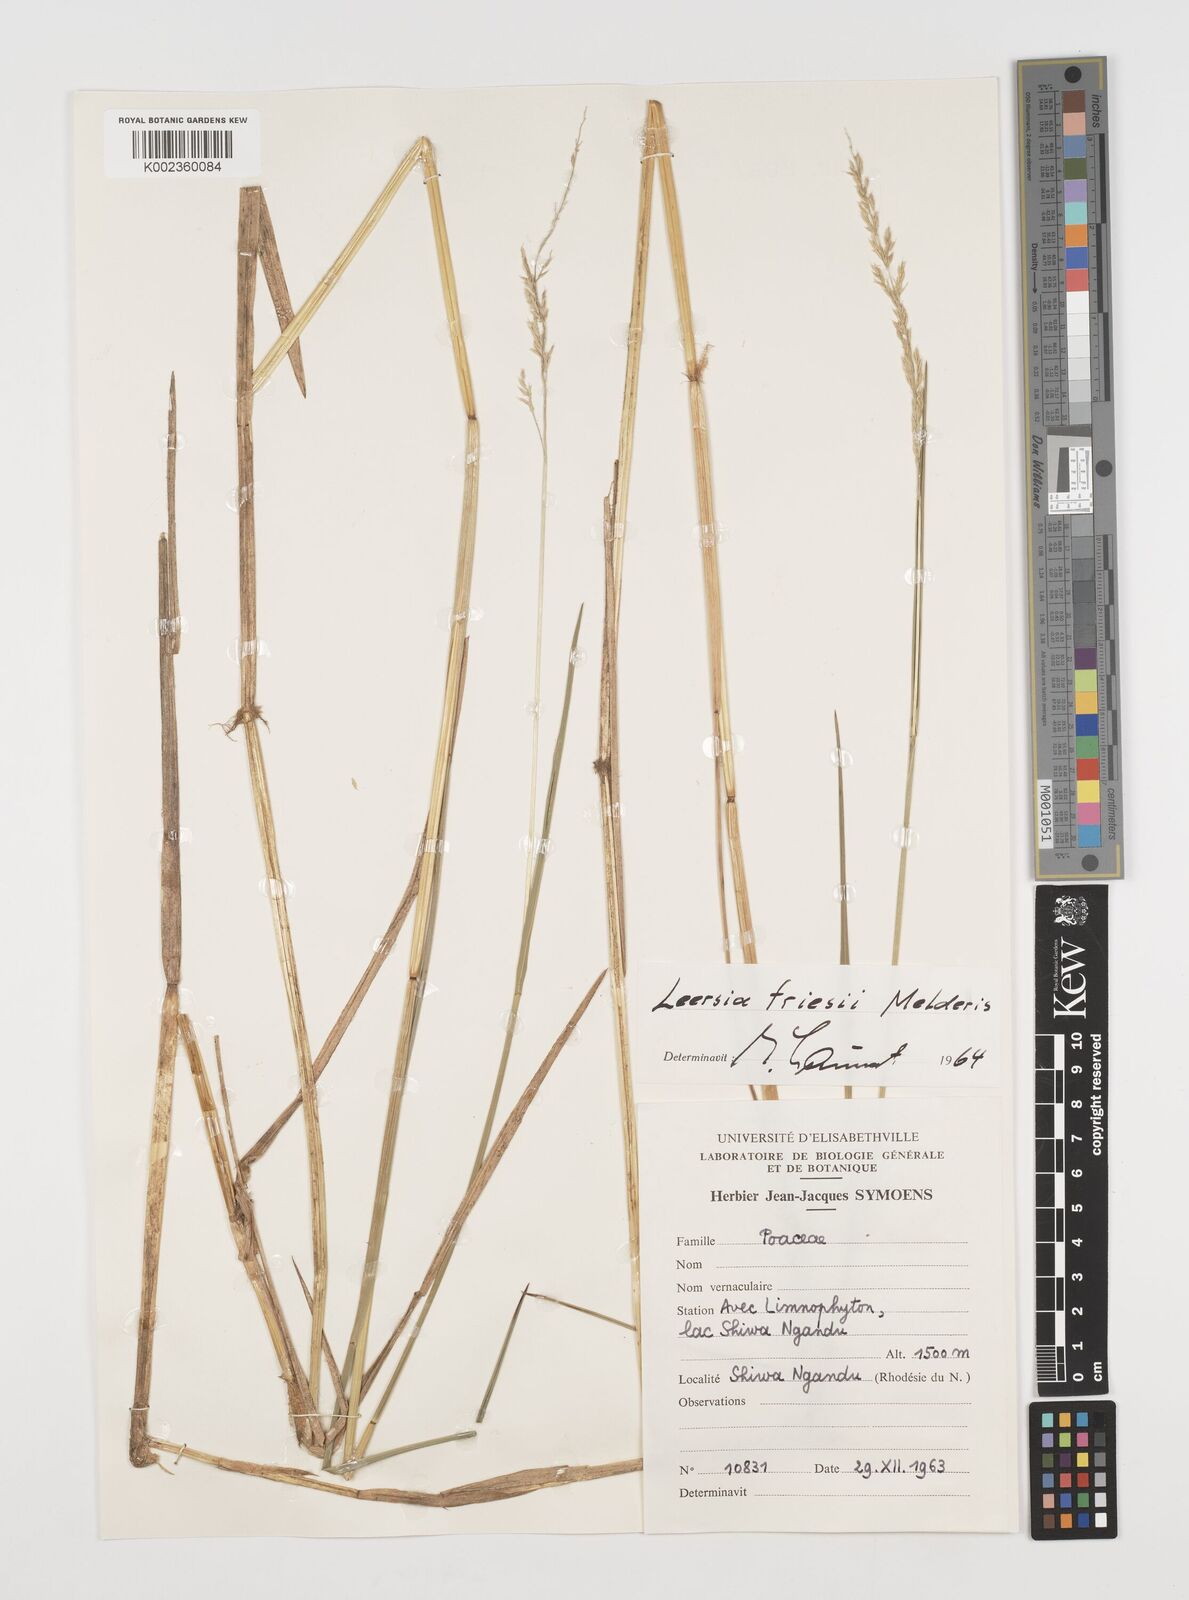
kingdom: Plantae
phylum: Tracheophyta
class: Liliopsida
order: Poales
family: Poaceae
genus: Leersia
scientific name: Leersia friesii
